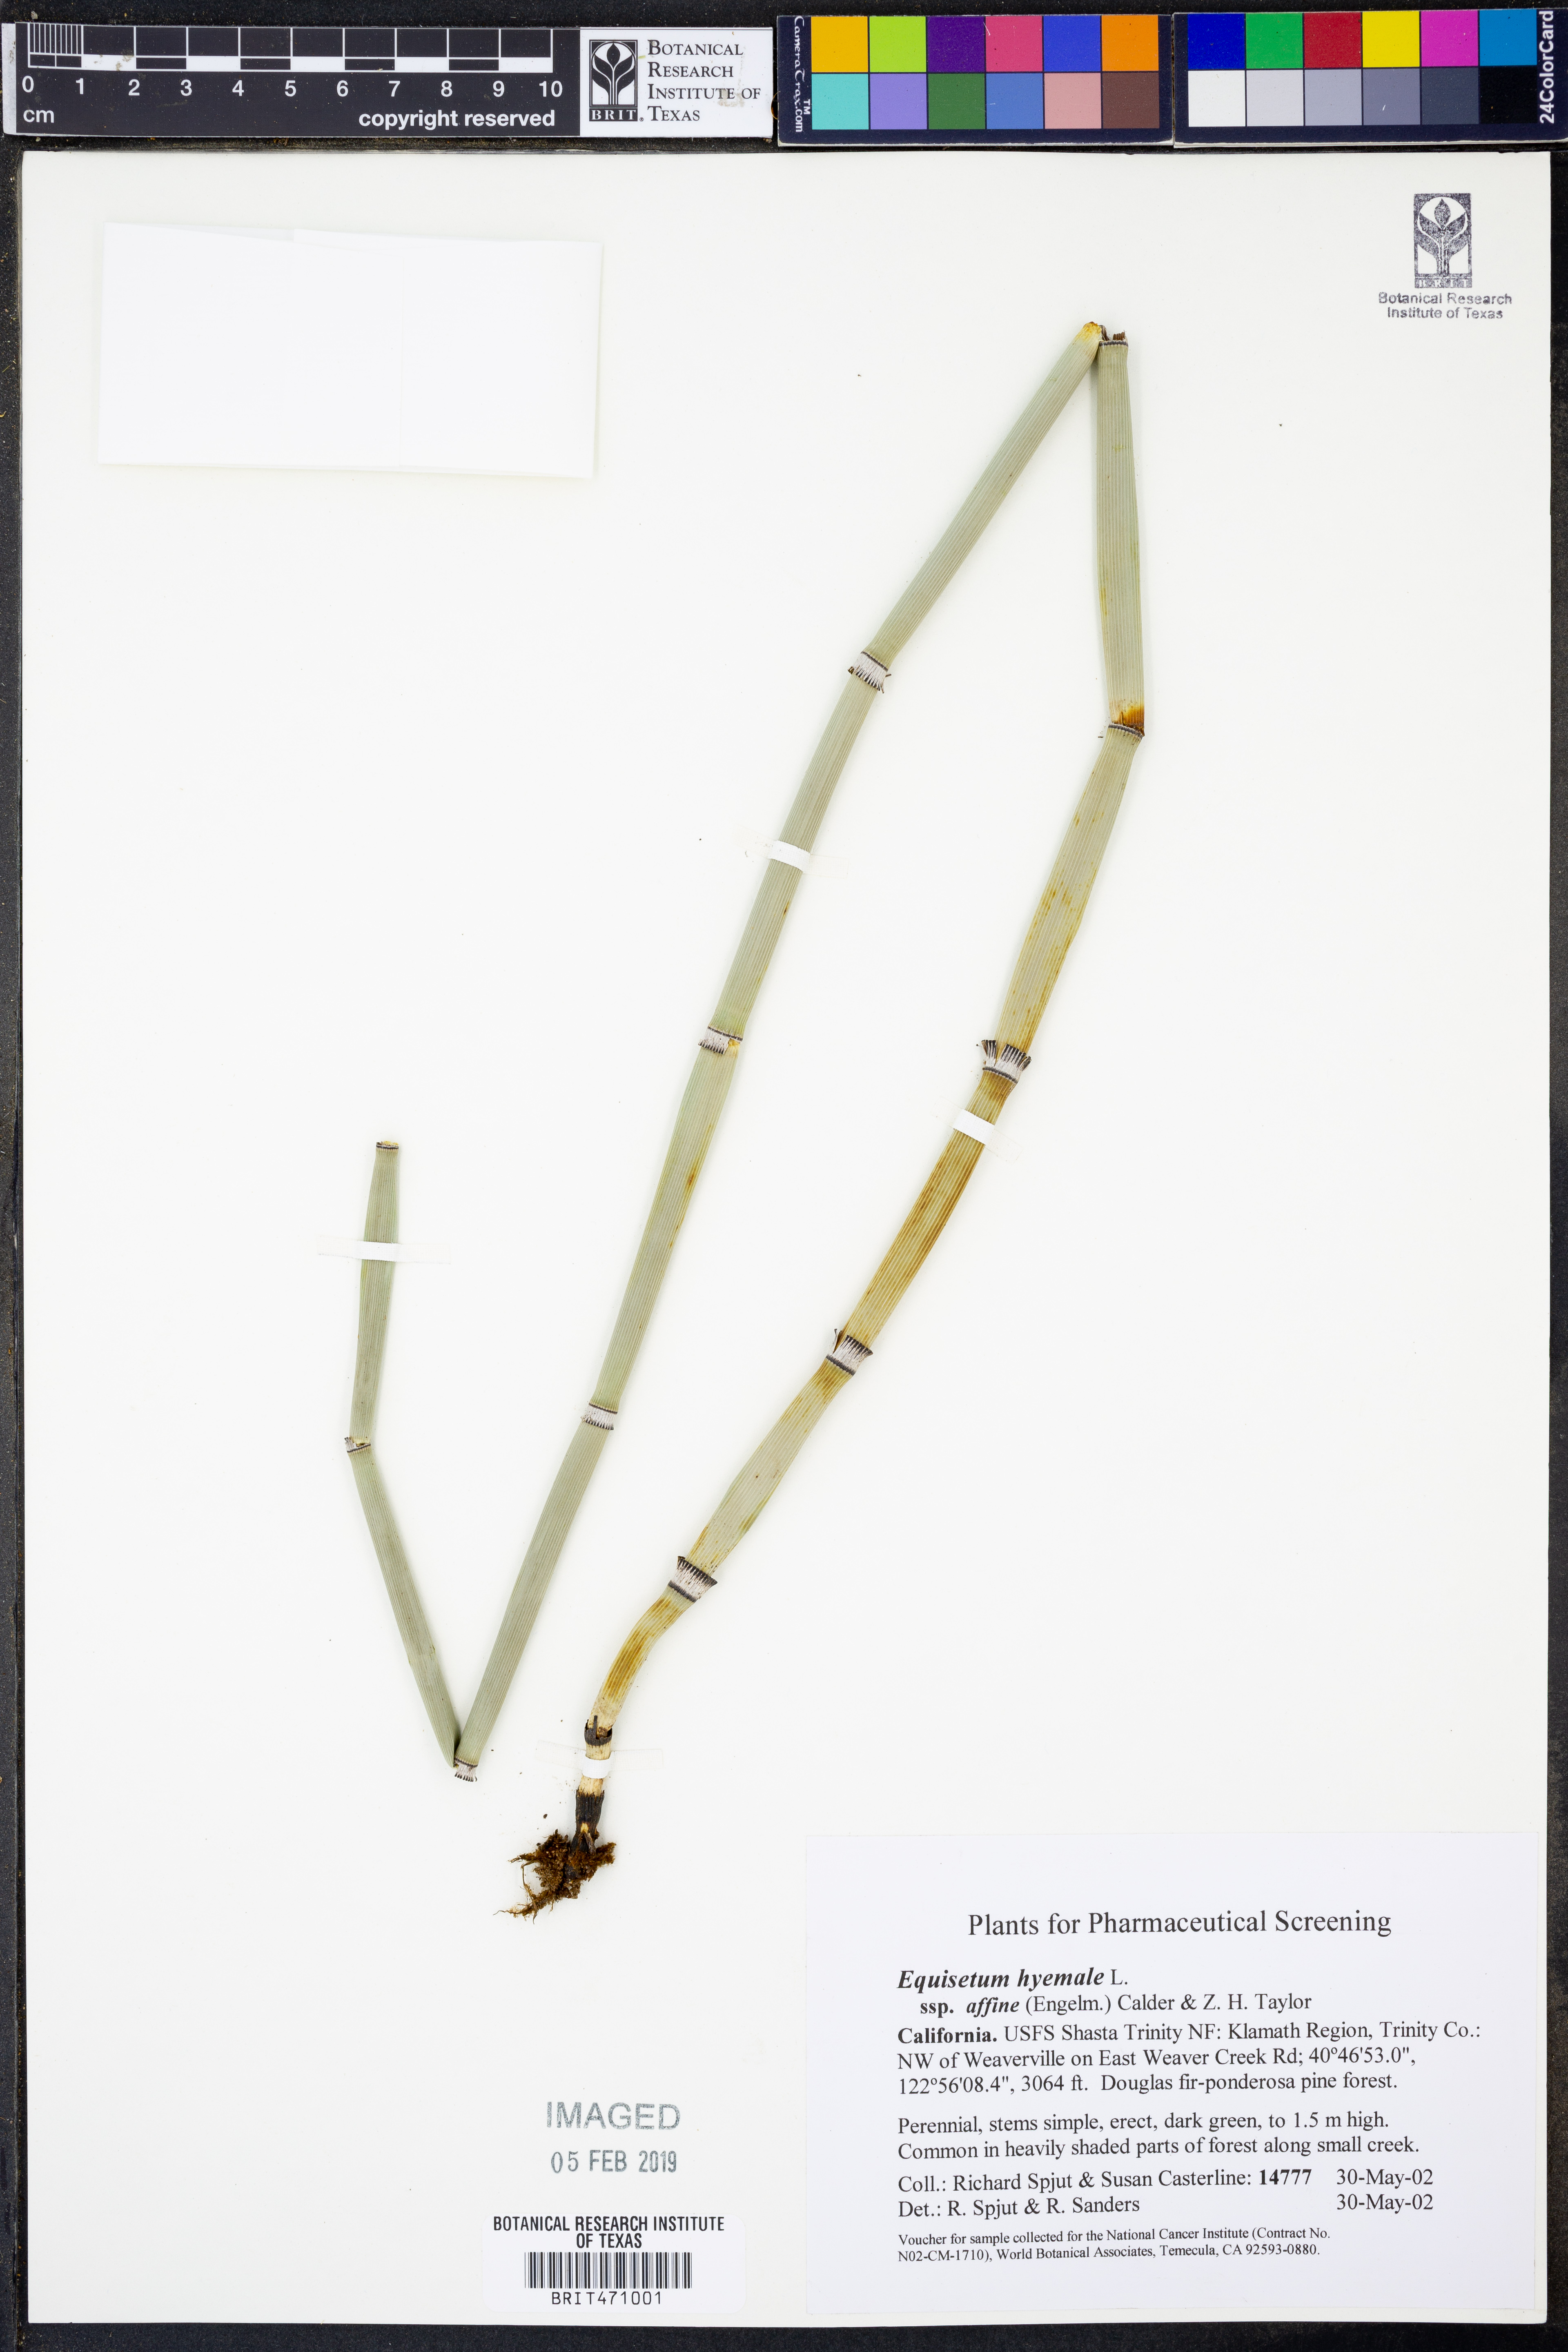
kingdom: Plantae
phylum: Tracheophyta
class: Polypodiopsida
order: Equisetales
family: Equisetaceae
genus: Equisetum
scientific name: Equisetum praealtum
